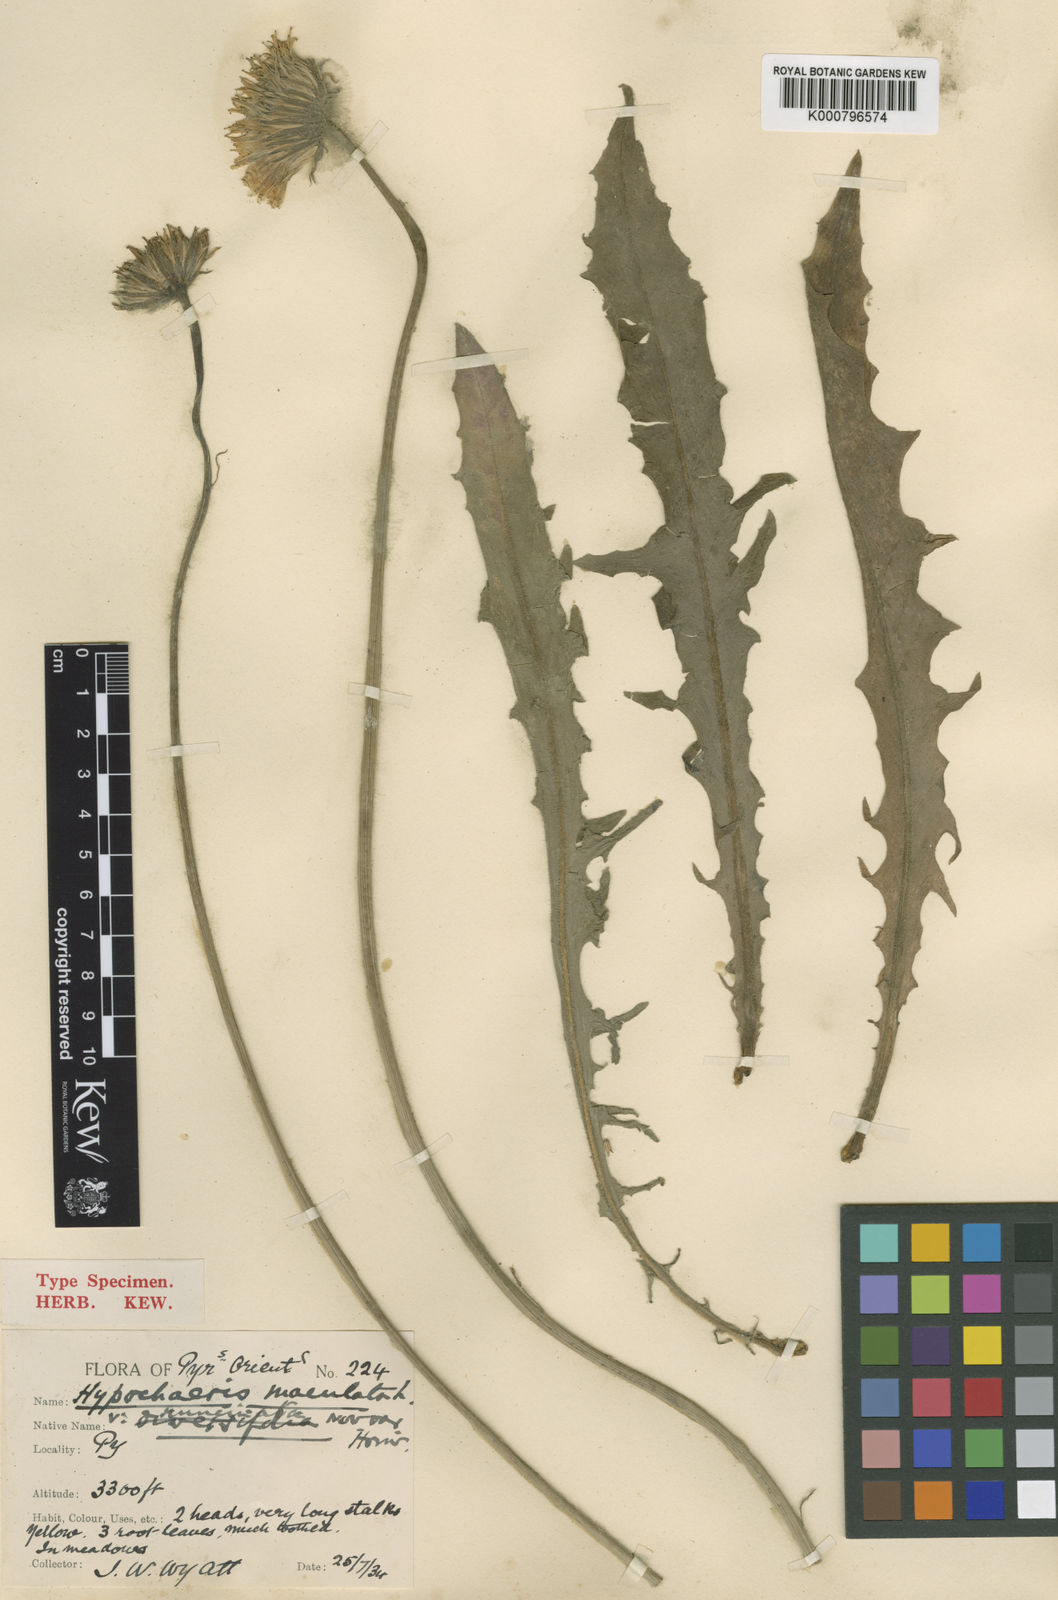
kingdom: Plantae
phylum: Tracheophyta
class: Magnoliopsida
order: Asterales
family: Asteraceae
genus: Trommsdorffia
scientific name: Trommsdorffia maculata
